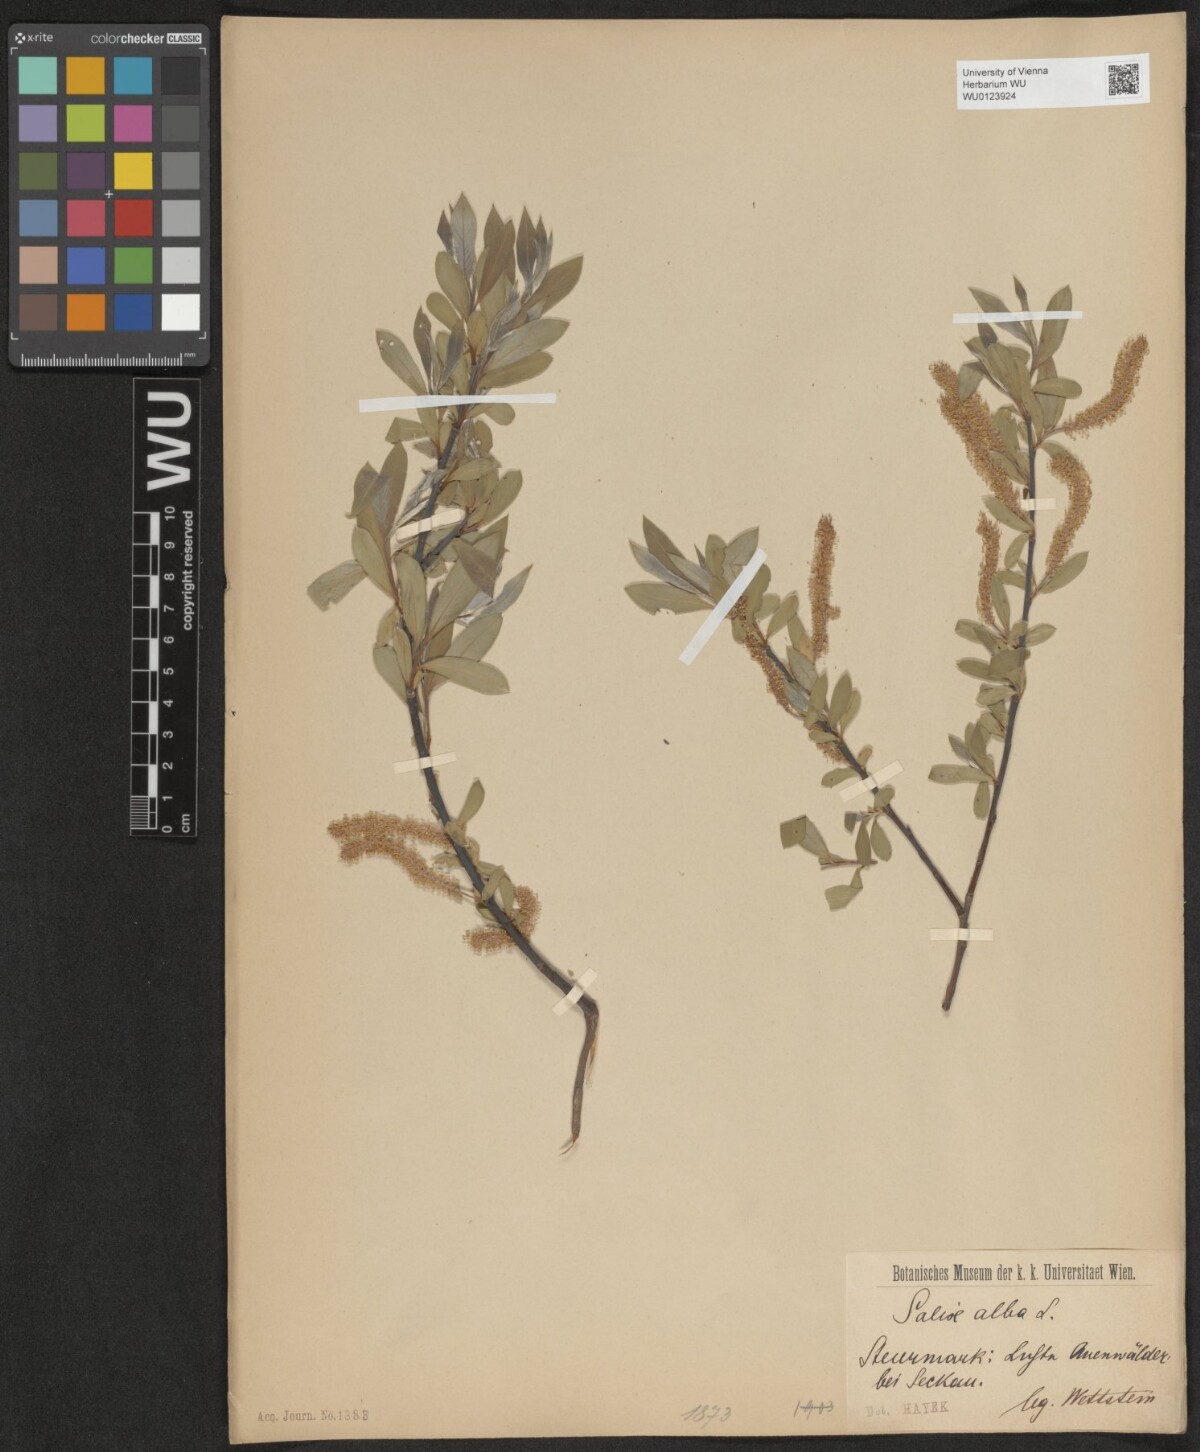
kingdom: Plantae
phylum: Tracheophyta
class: Magnoliopsida
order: Malpighiales
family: Salicaceae
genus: Salix
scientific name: Salix alba
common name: White willow
